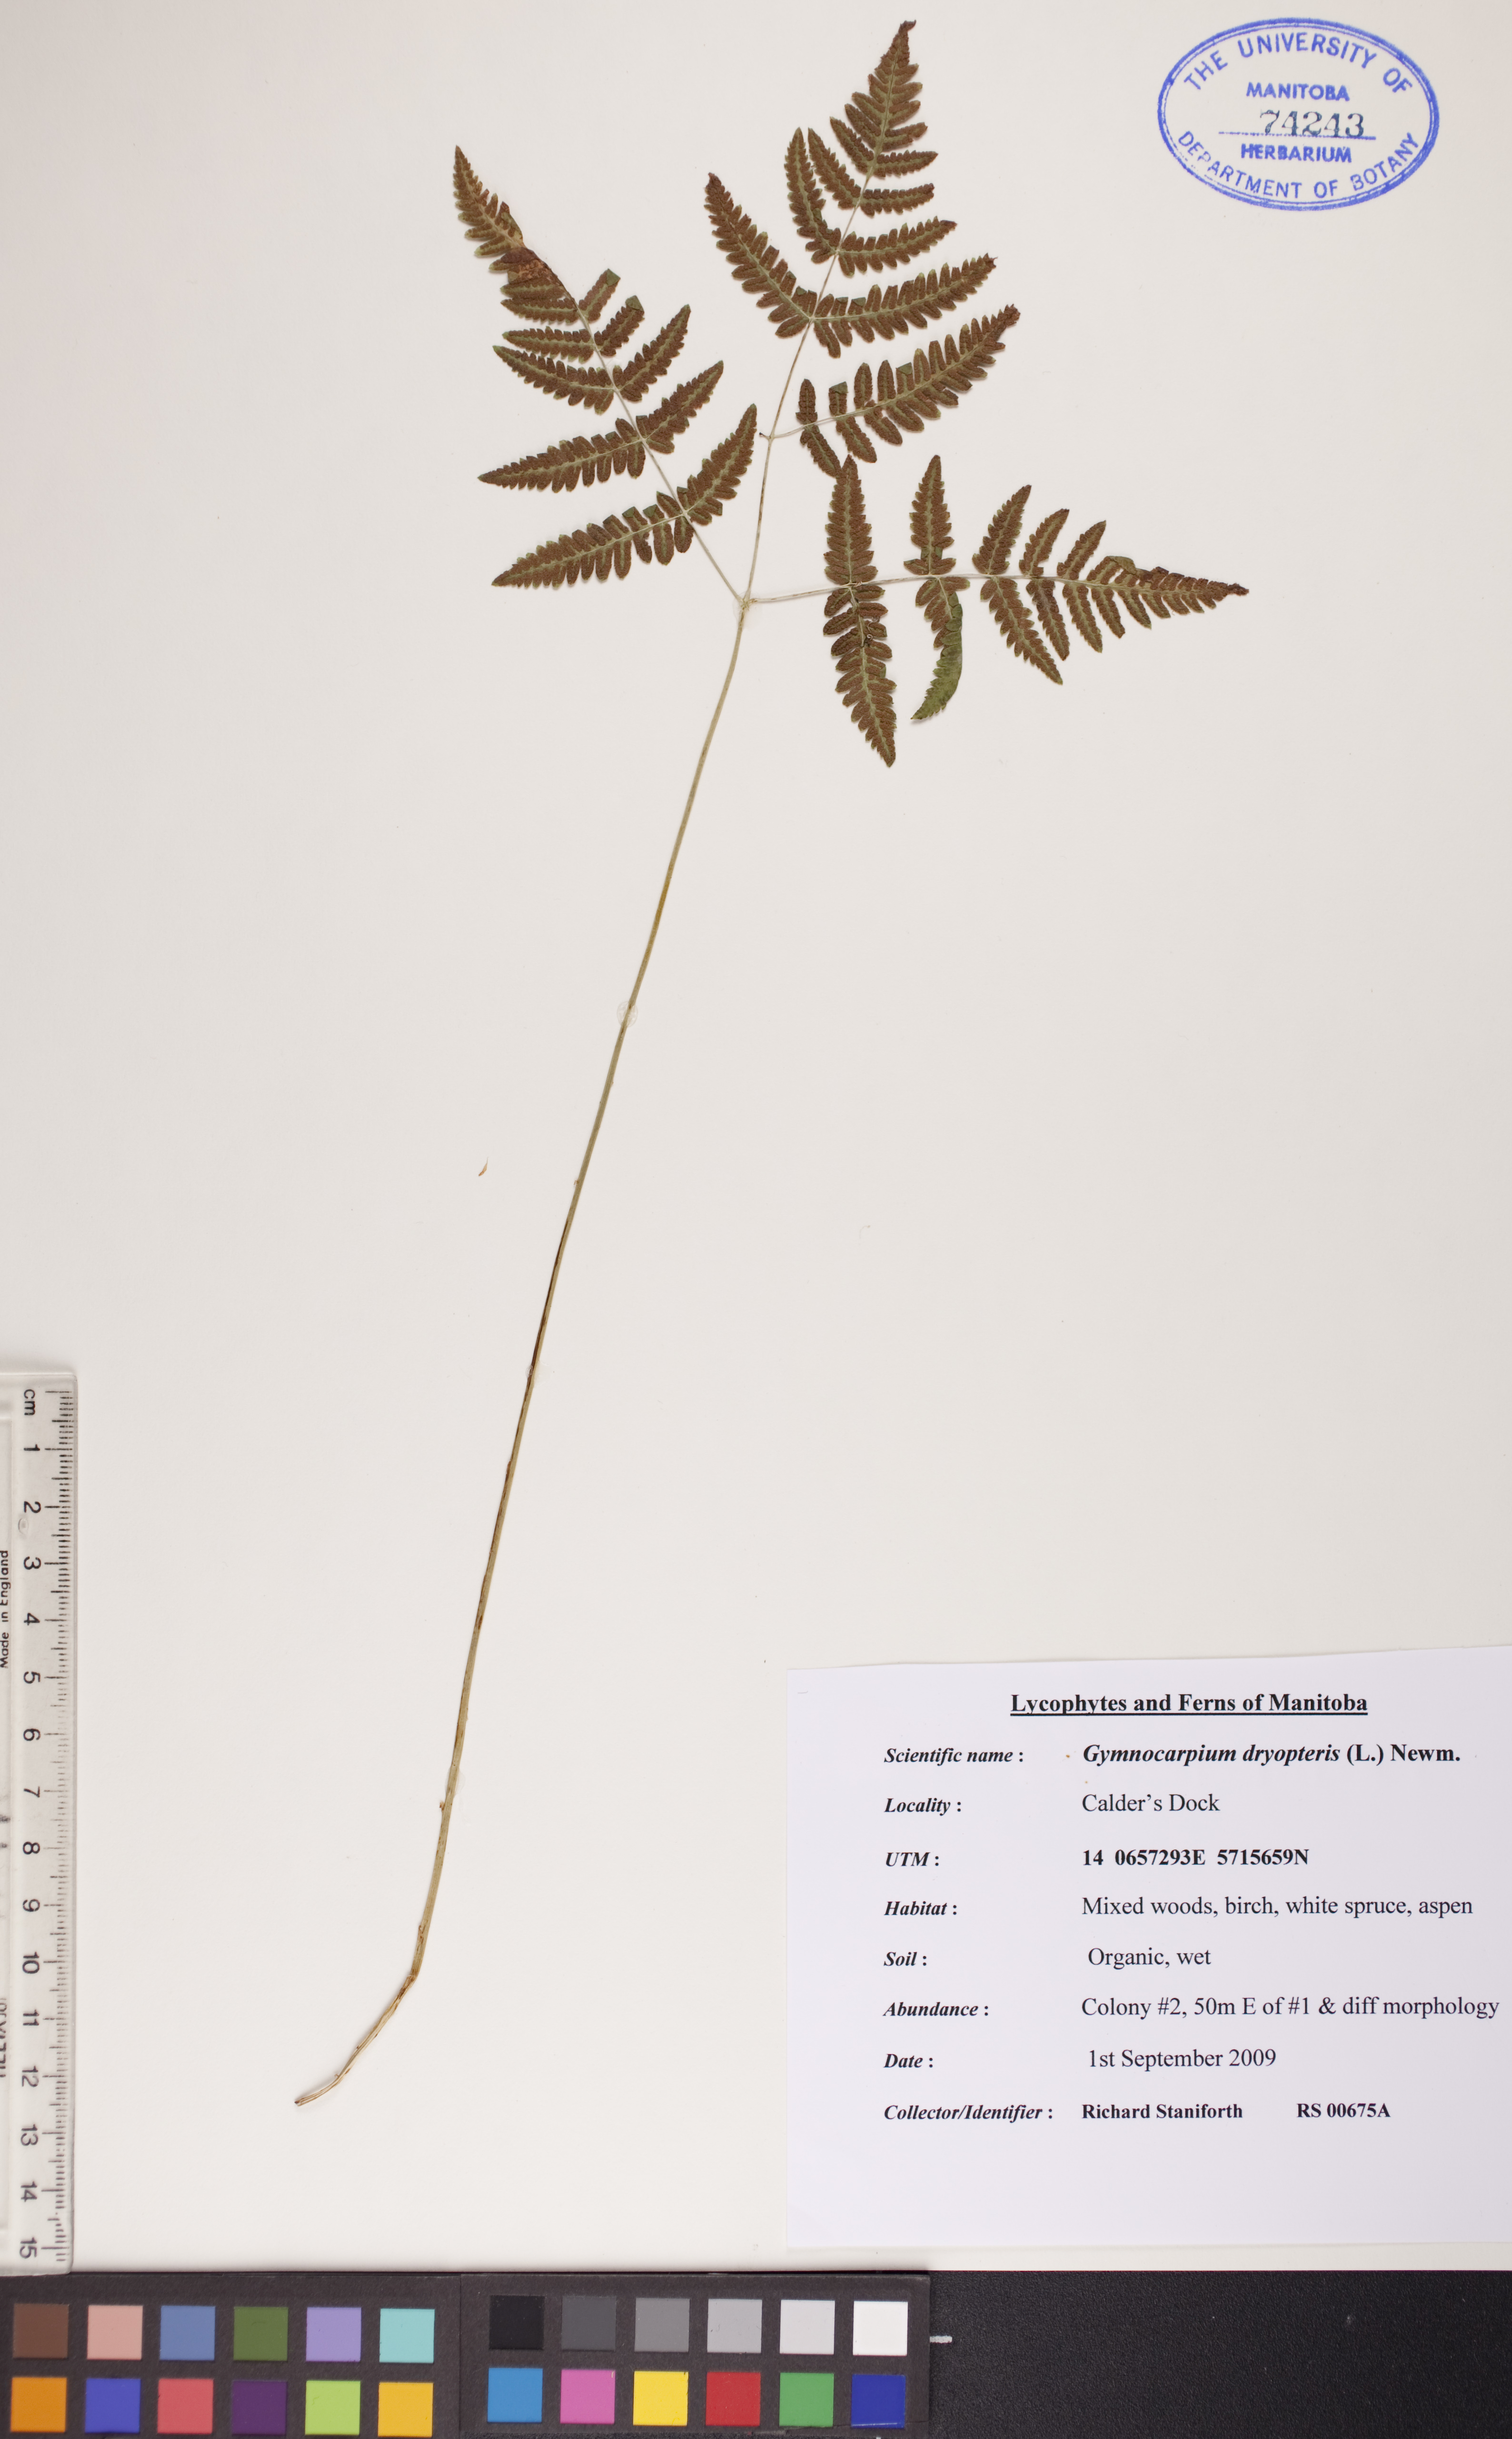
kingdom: Plantae
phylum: Tracheophyta
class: Polypodiopsida
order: Polypodiales
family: Cystopteridaceae
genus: Gymnocarpium
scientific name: Gymnocarpium dryopteris
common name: Oak fern
